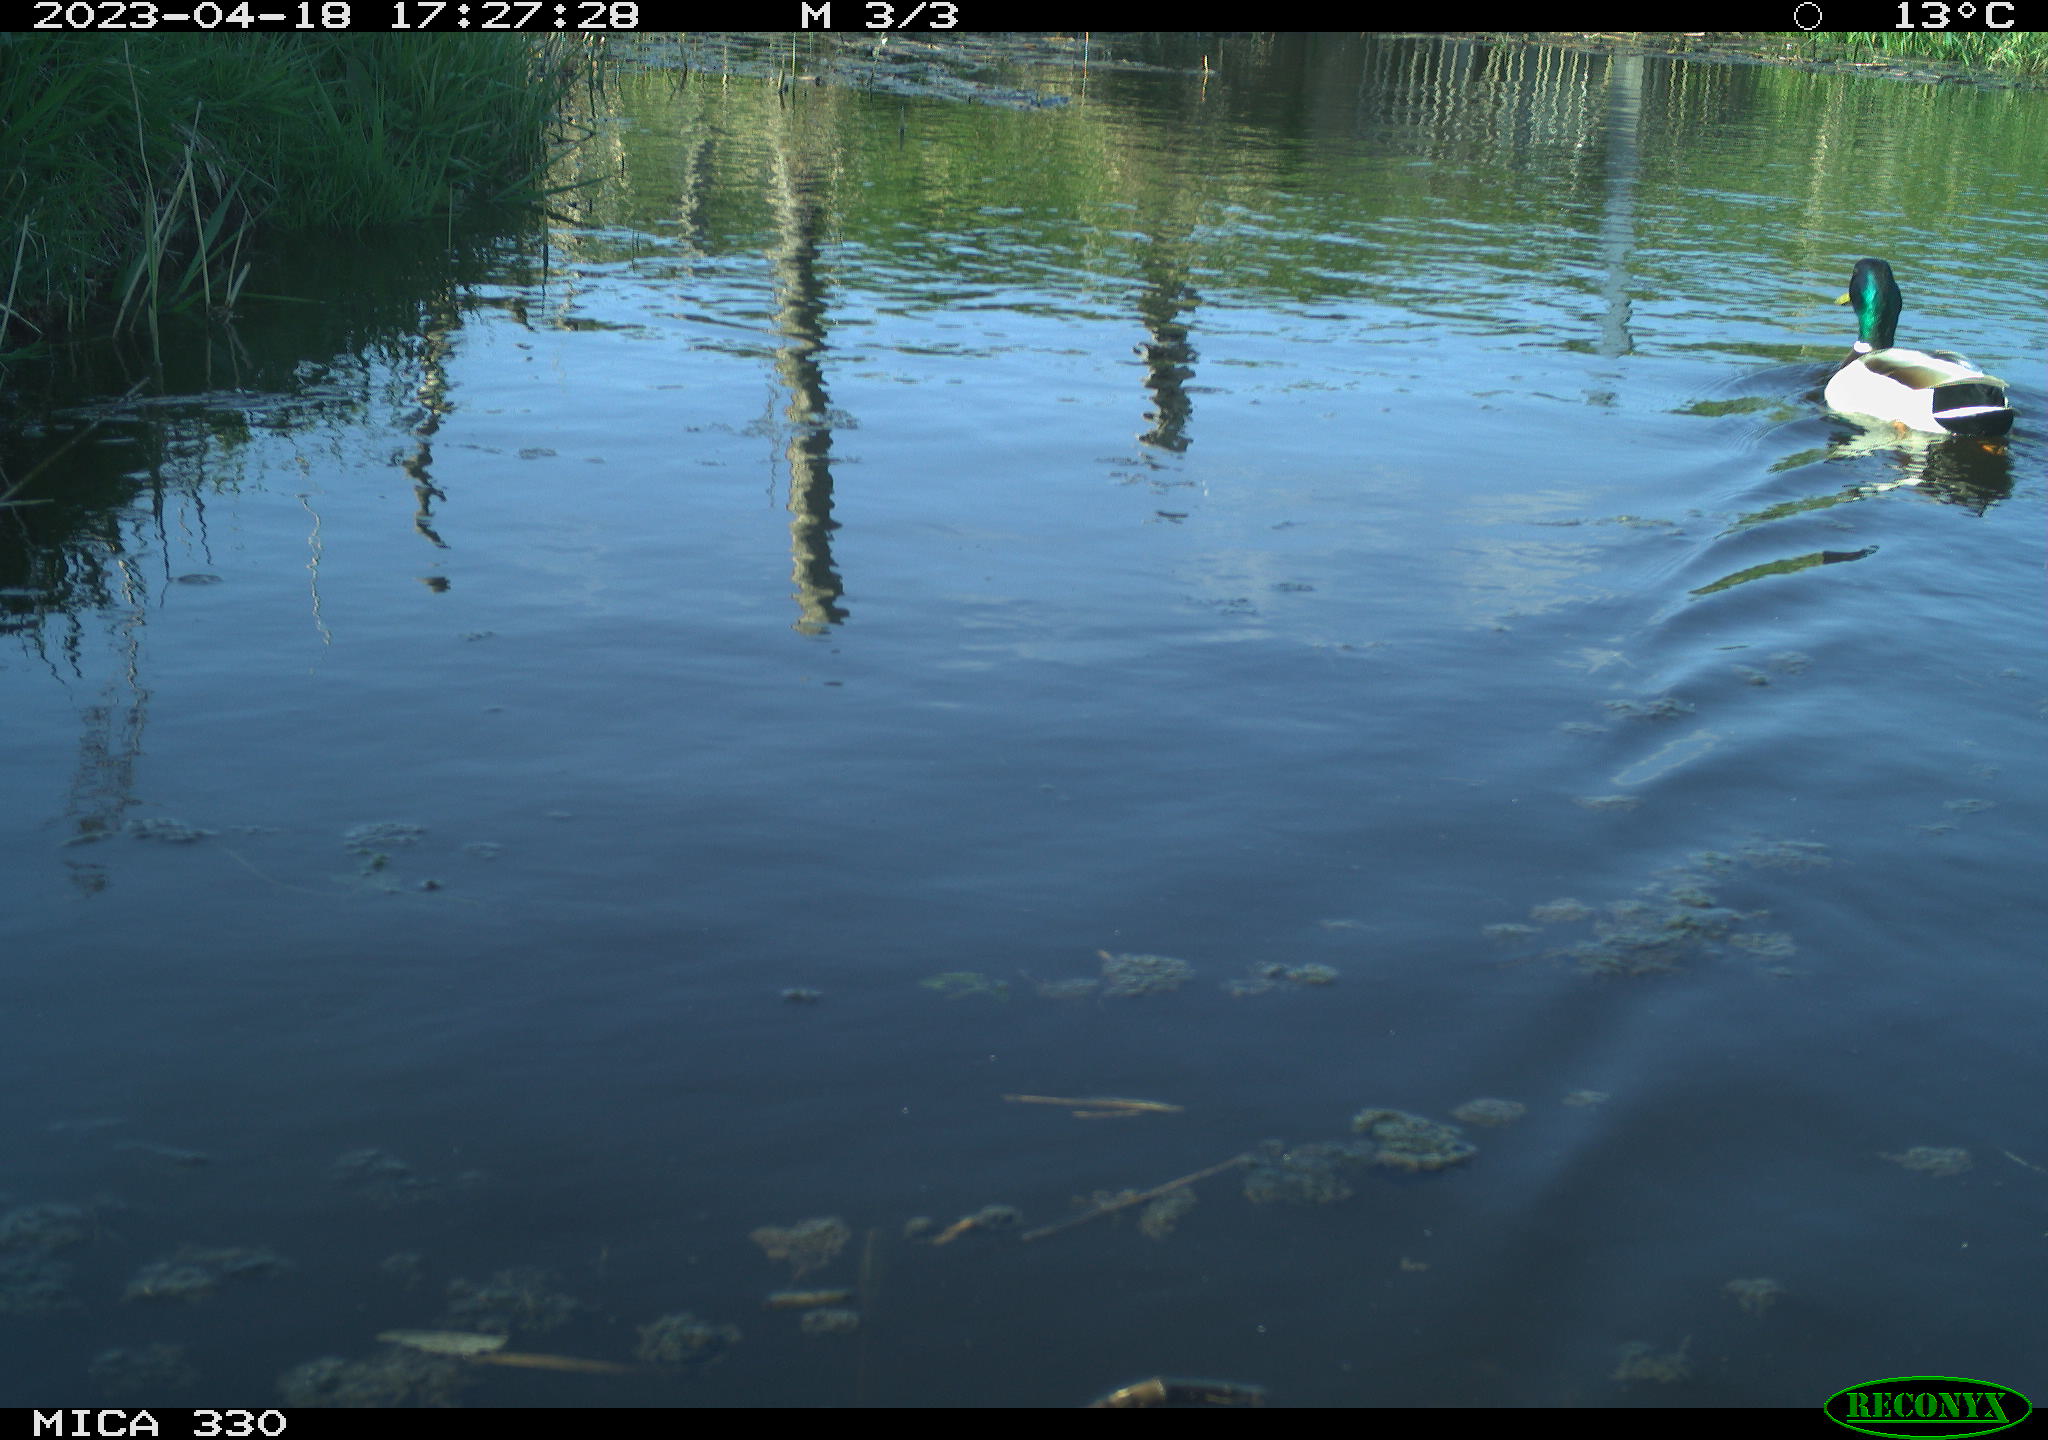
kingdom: Animalia
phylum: Chordata
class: Aves
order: Anseriformes
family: Anatidae
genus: Anas
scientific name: Anas
